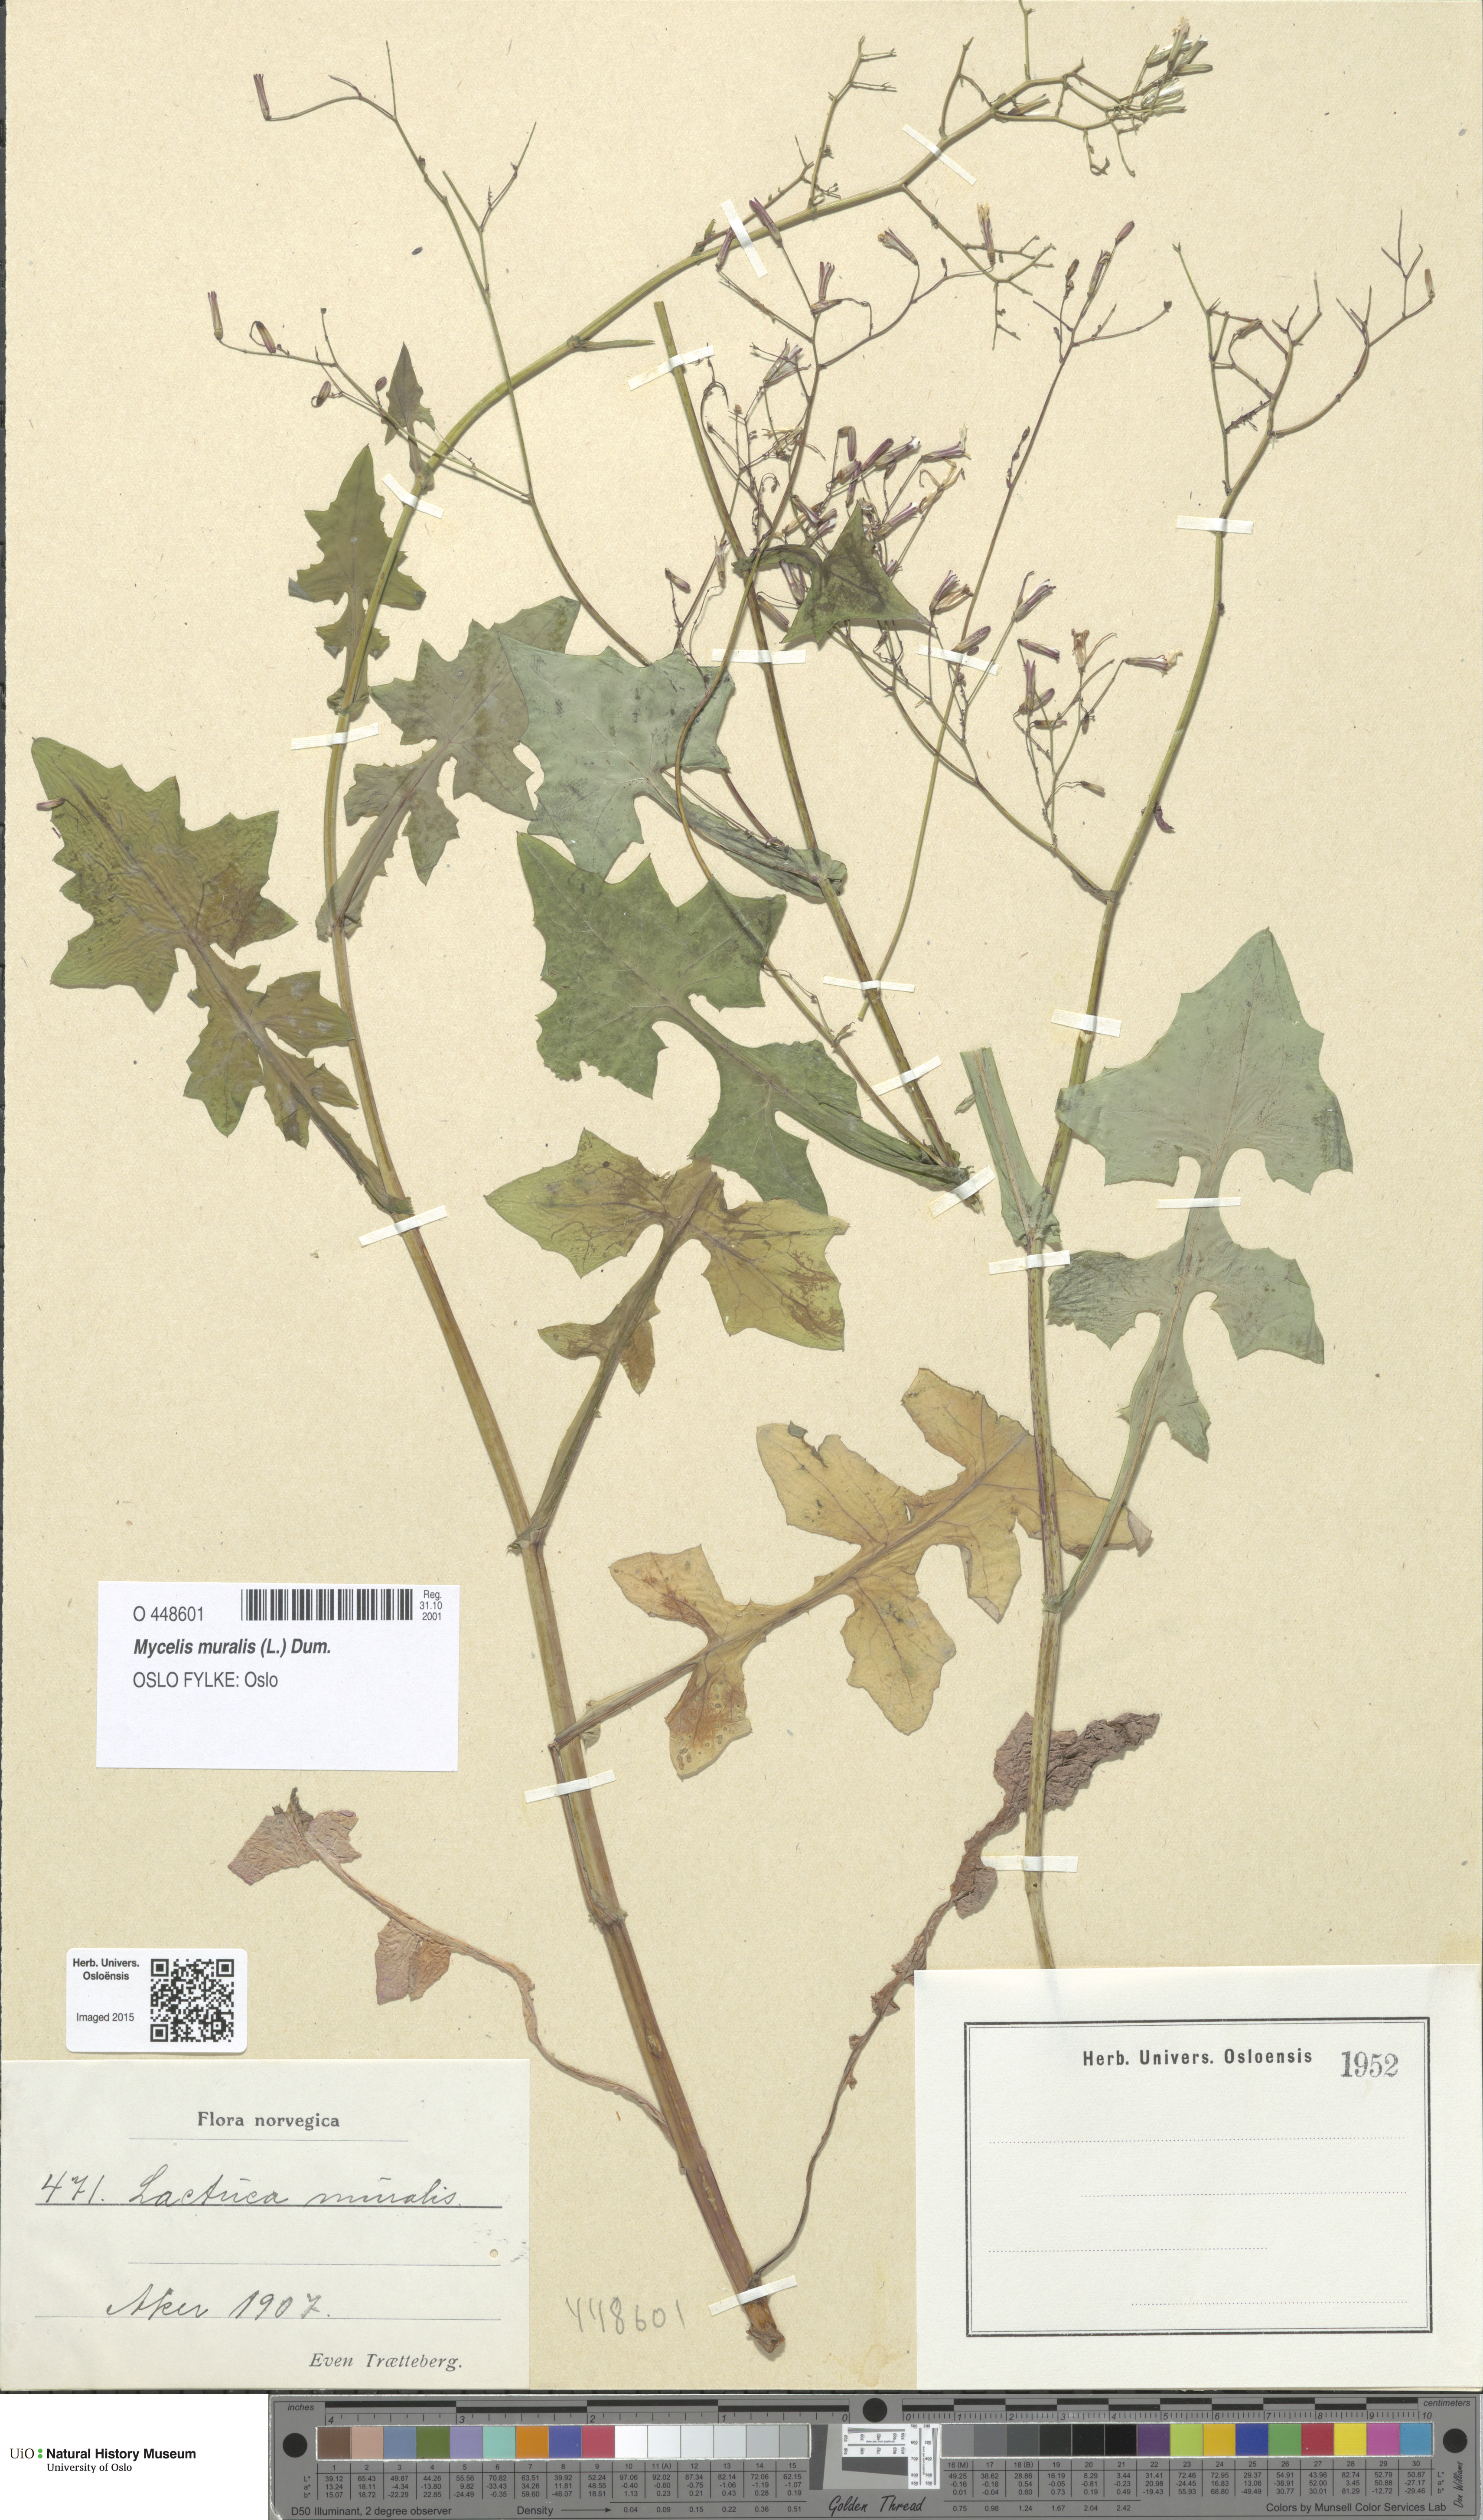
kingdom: Plantae
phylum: Tracheophyta
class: Magnoliopsida
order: Asterales
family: Asteraceae
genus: Mycelis
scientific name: Mycelis muralis
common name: Wall lettuce
